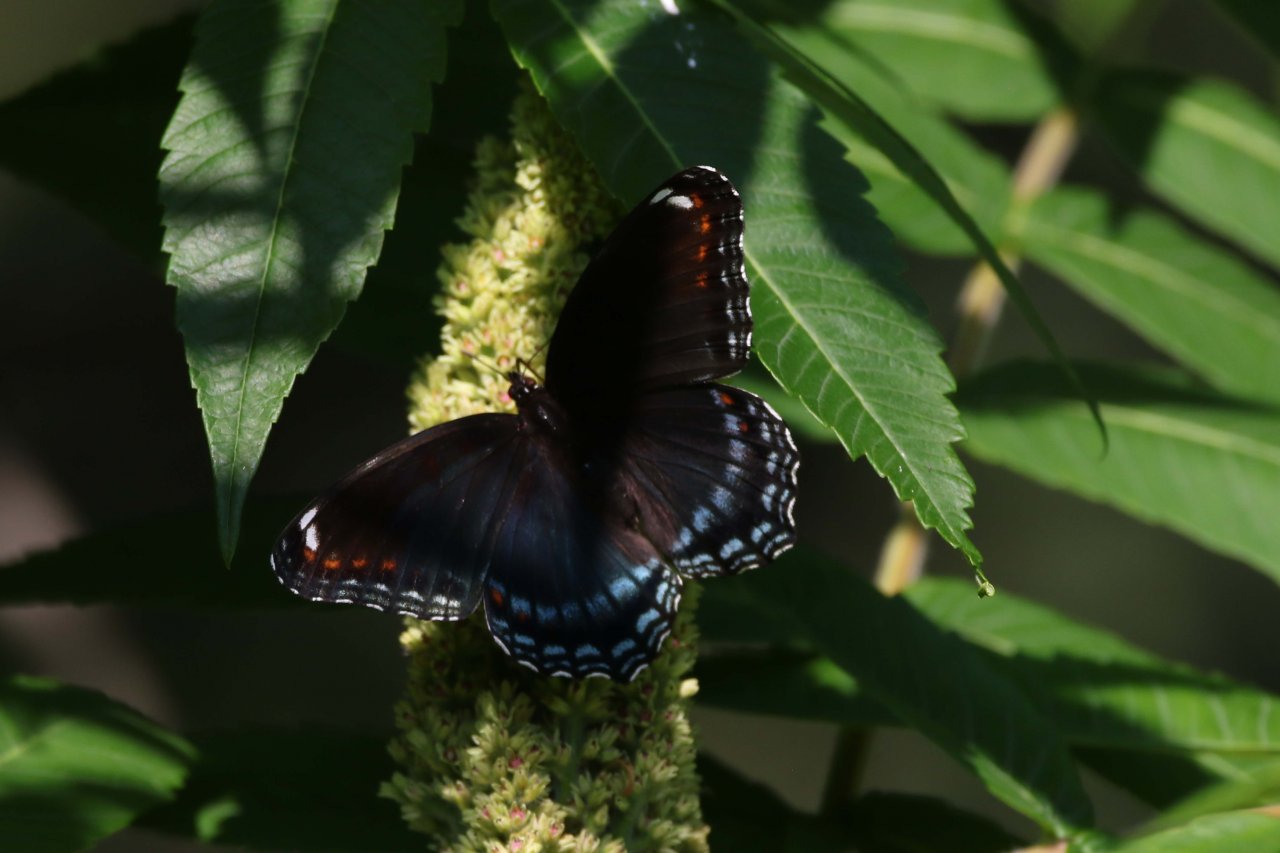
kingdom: Animalia
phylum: Arthropoda
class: Insecta
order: Lepidoptera
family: Nymphalidae
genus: Limenitis
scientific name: Limenitis astyanax
